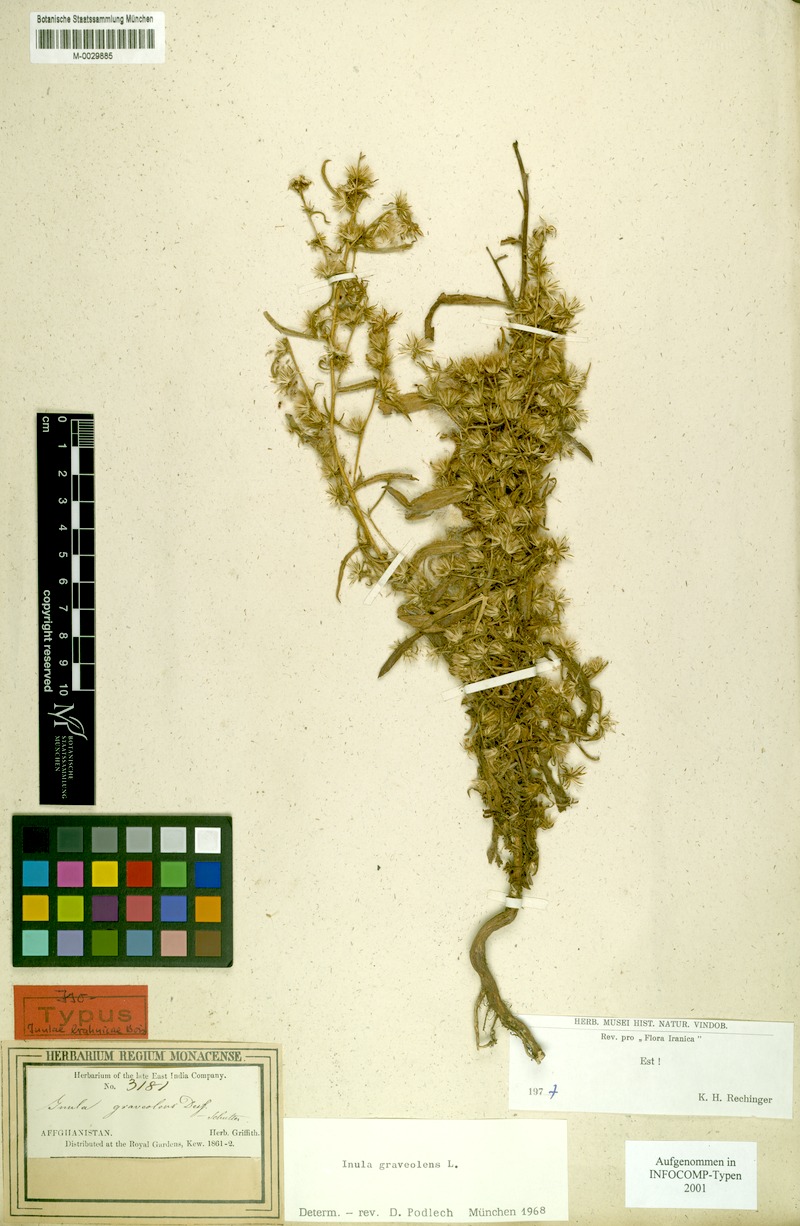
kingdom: Plantae
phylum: Tracheophyta
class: Magnoliopsida
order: Asterales
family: Asteraceae
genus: Dittrichia
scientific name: Dittrichia graveolens
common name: Stinking fleabane
